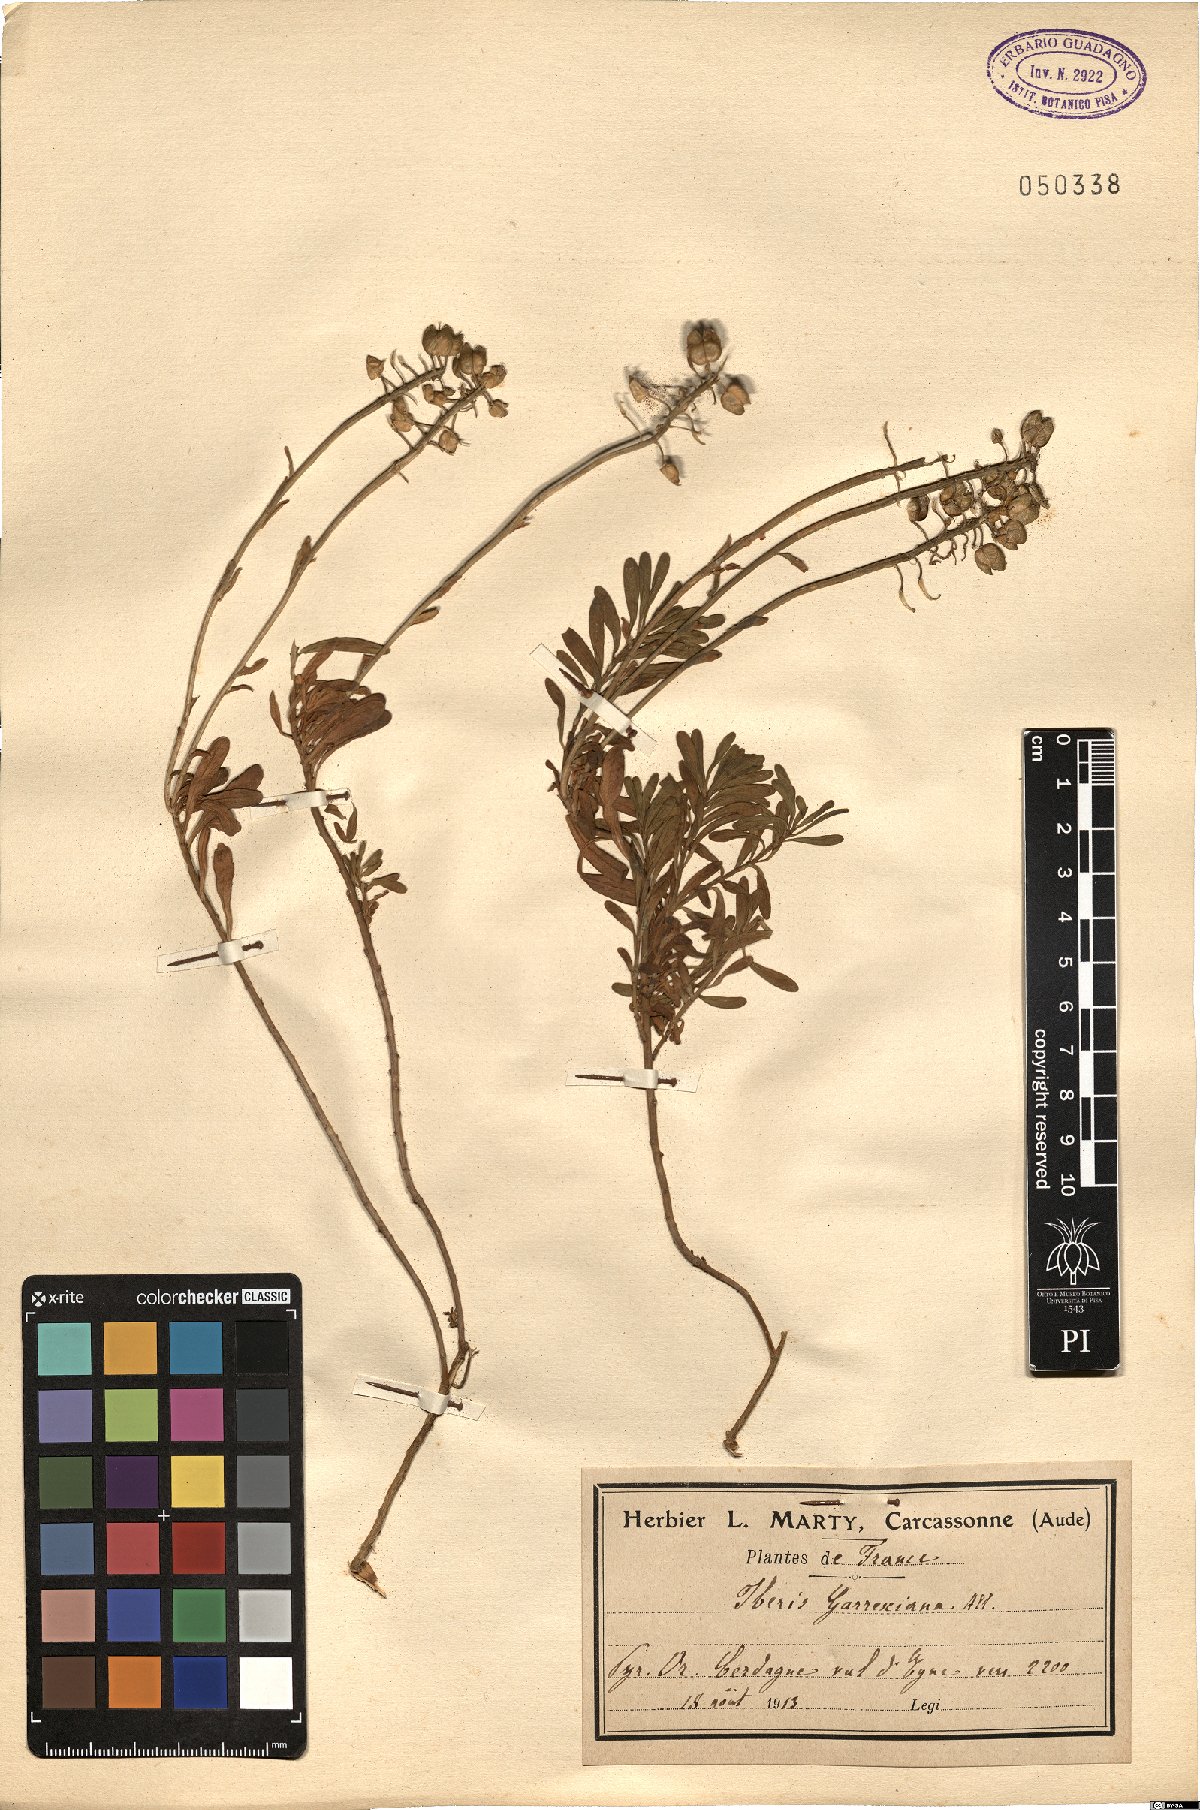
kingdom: Plantae
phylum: Tracheophyta
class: Magnoliopsida
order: Brassicales
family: Brassicaceae
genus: Iberis
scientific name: Iberis sempervirens
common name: Evergreen candytuft
